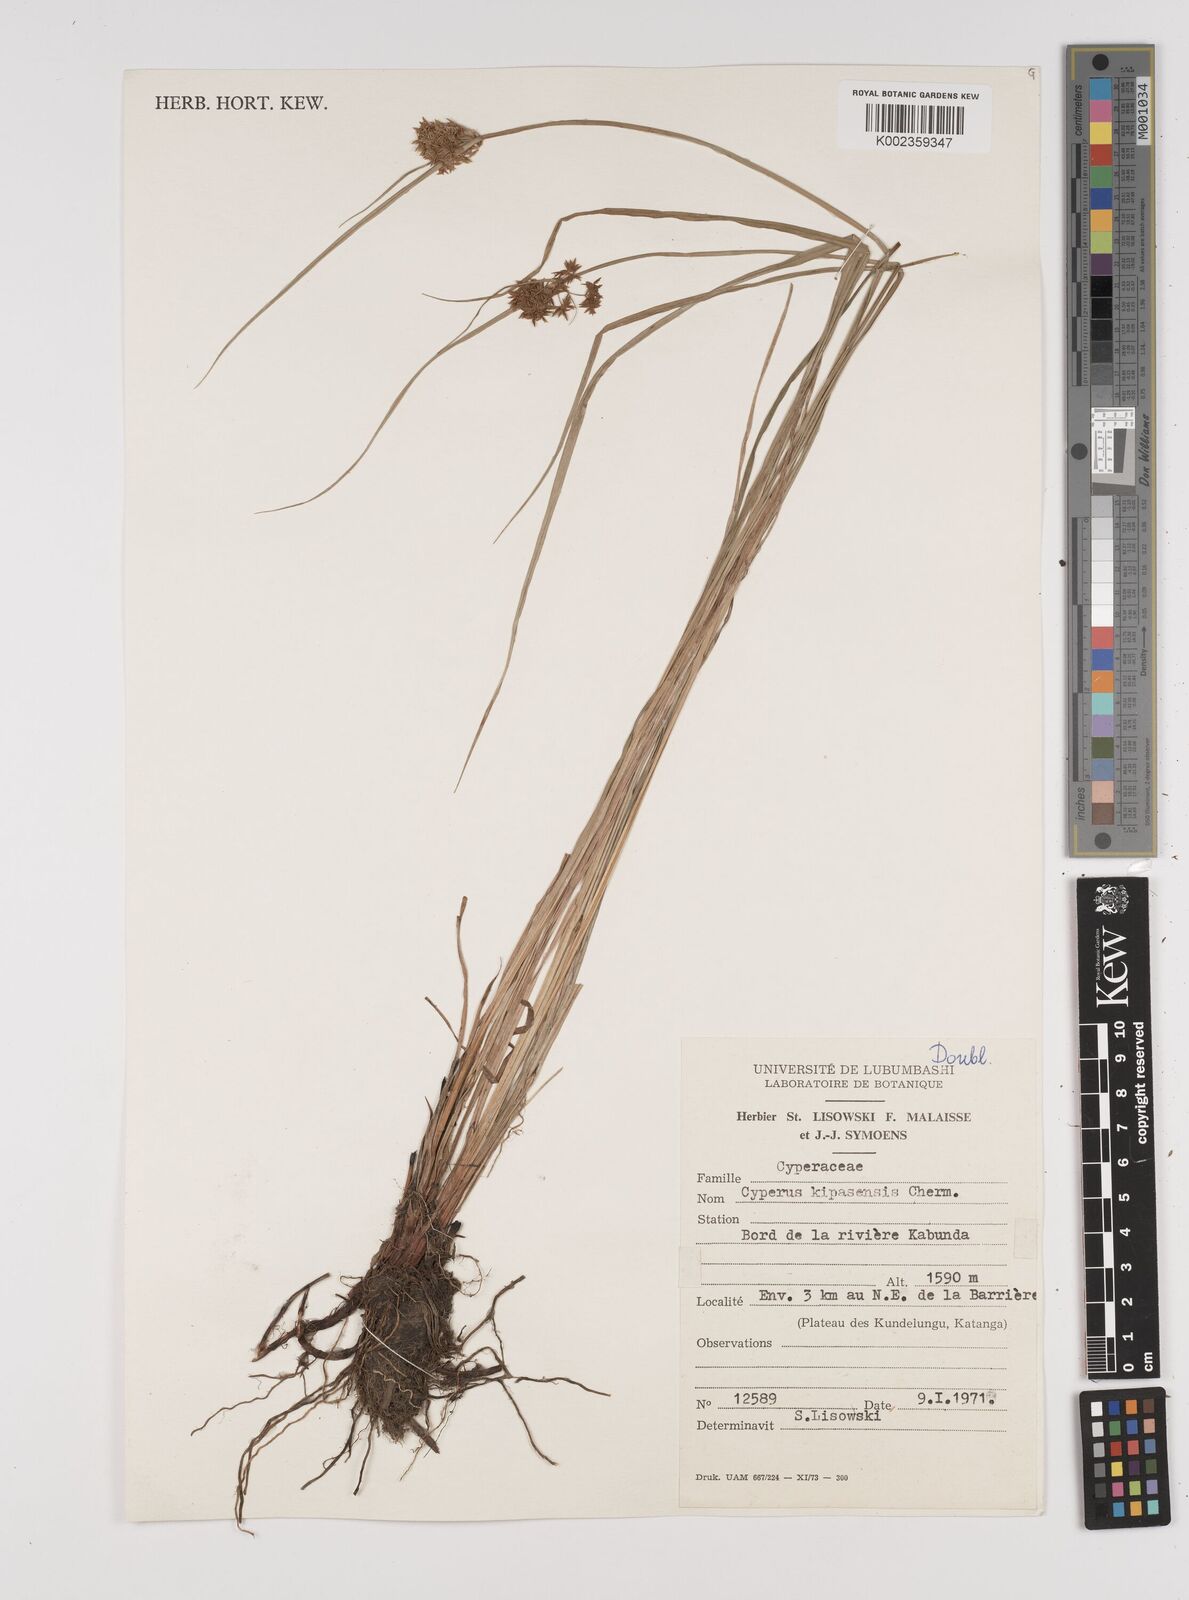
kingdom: Plantae
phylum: Tracheophyta
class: Liliopsida
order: Poales
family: Cyperaceae
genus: Cyperus
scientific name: Cyperus kipasensis
